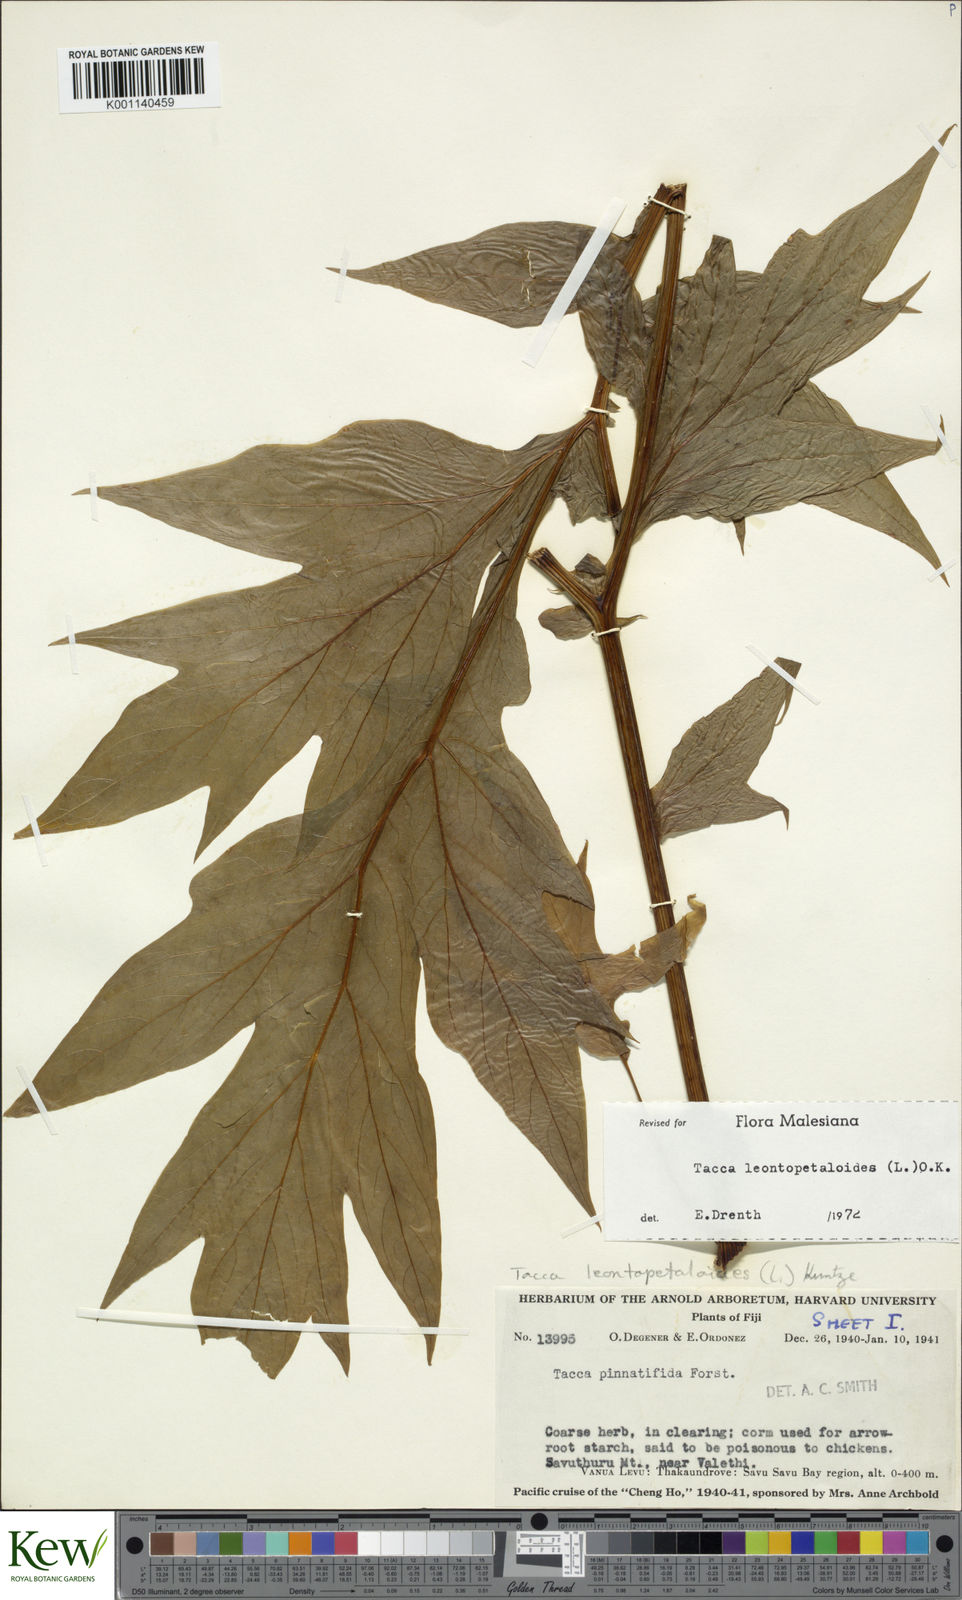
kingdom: Plantae
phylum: Tracheophyta
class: Liliopsida
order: Dioscoreales
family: Dioscoreaceae
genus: Tacca
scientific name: Tacca leontopetaloides
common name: Arrowroot
